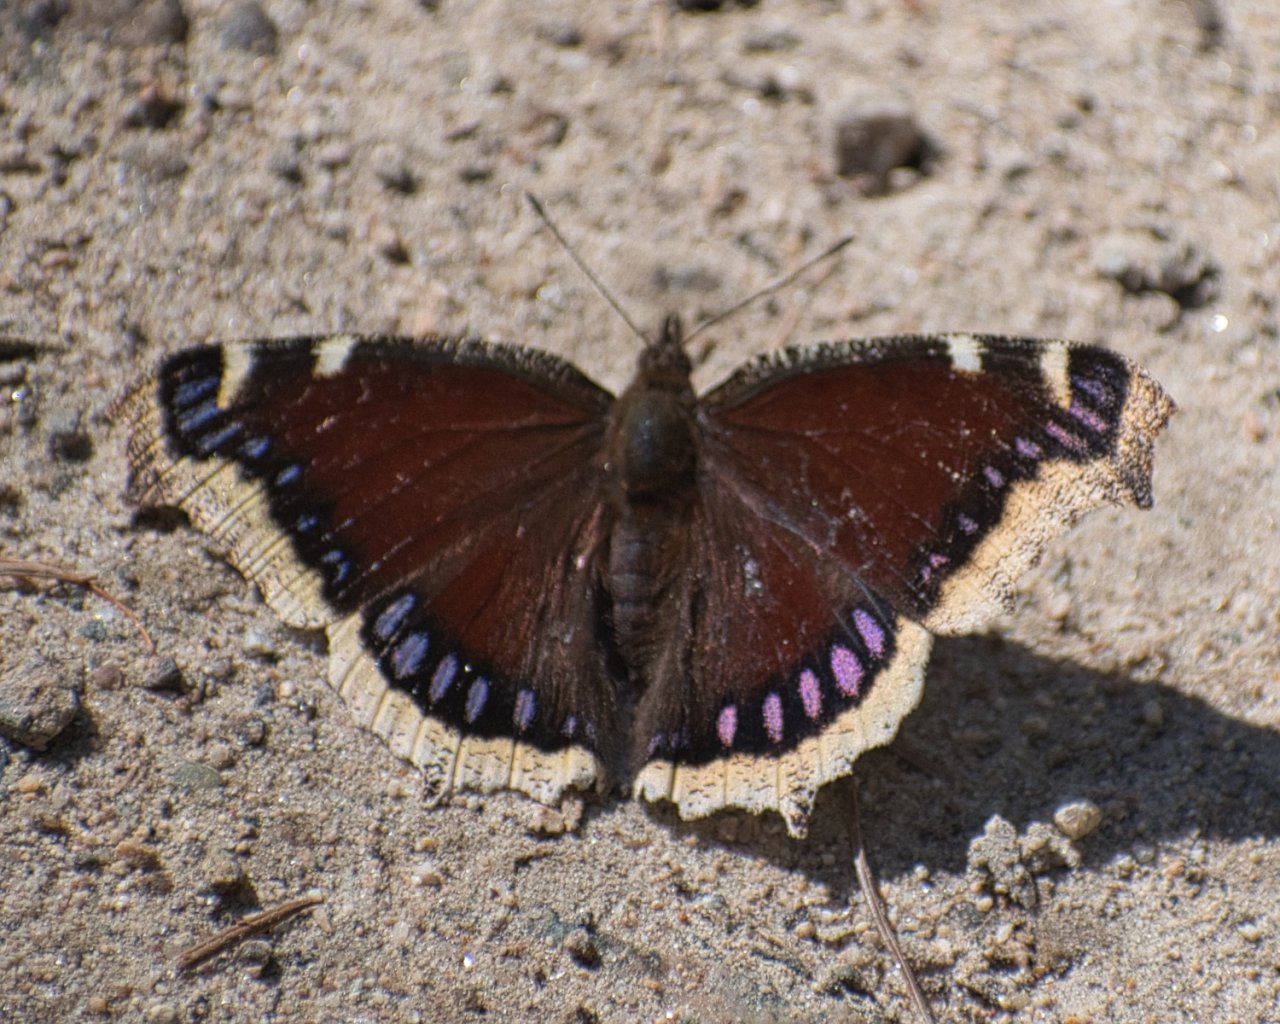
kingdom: Animalia
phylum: Arthropoda
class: Insecta
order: Lepidoptera
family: Nymphalidae
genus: Nymphalis
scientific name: Nymphalis antiopa
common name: Mourning Cloak
